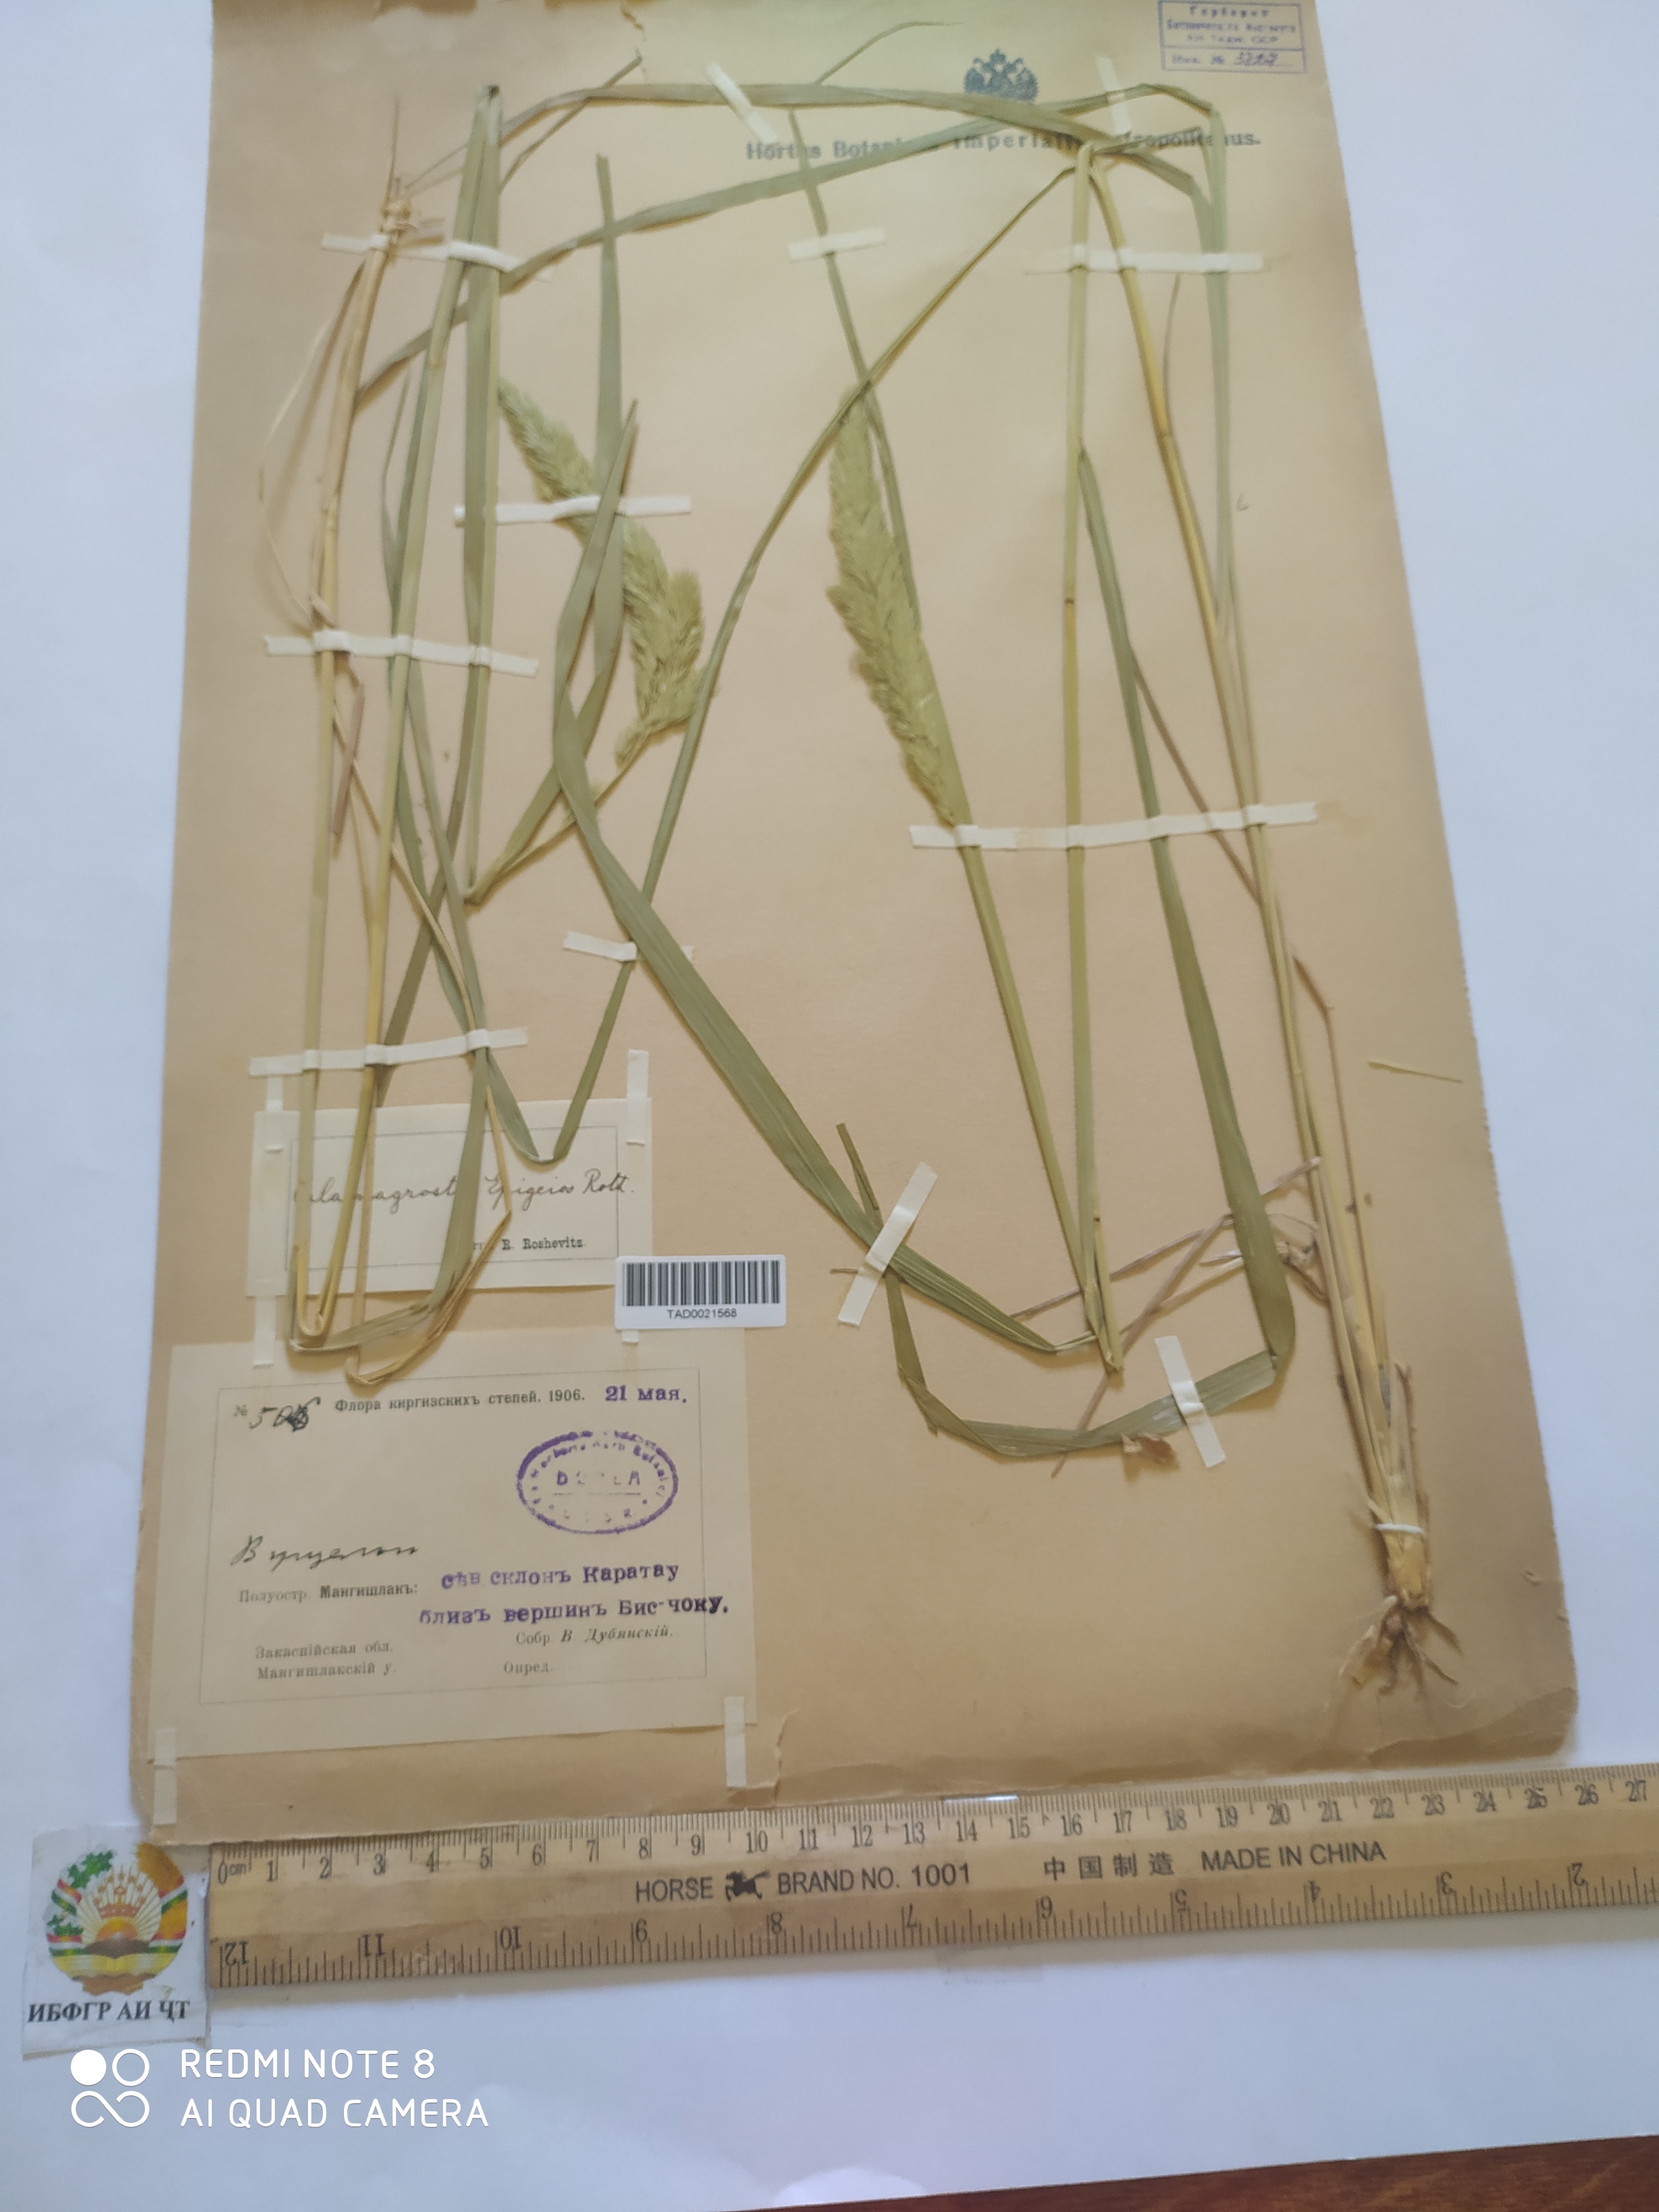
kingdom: Plantae
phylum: Tracheophyta
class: Liliopsida
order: Poales
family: Poaceae
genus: Calamagrostis
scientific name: Calamagrostis epigejos
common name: Wood small-reed
